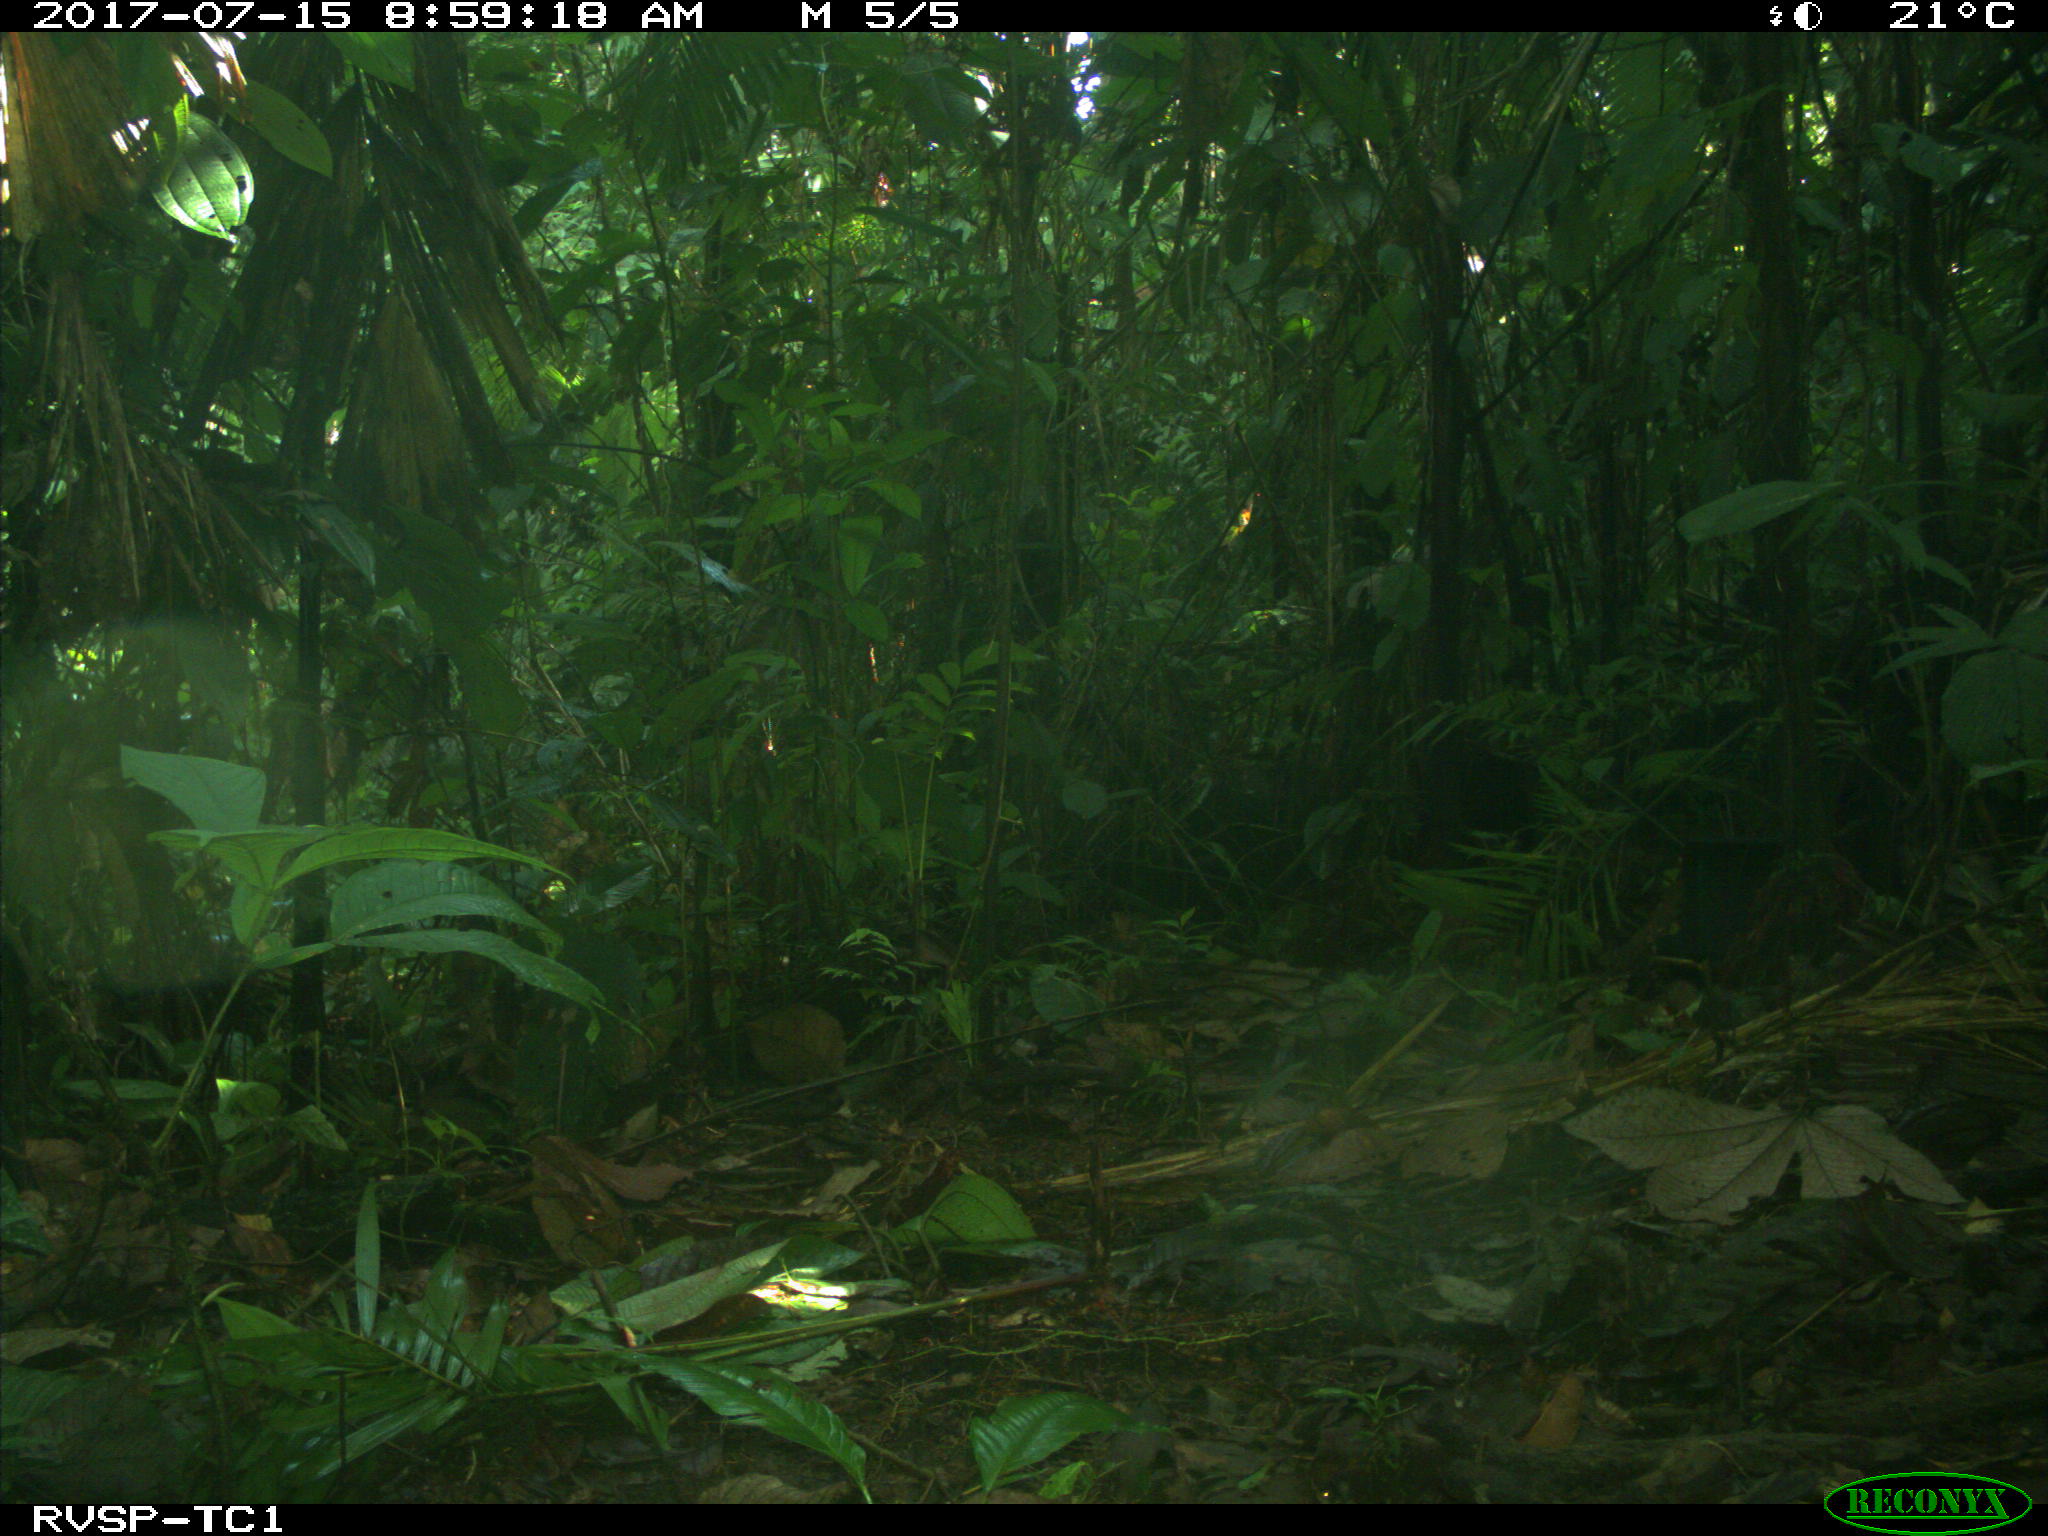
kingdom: Animalia
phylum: Chordata
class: Mammalia
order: Artiodactyla
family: Tayassuidae
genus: Pecari
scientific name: Pecari tajacu
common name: Collared peccary
